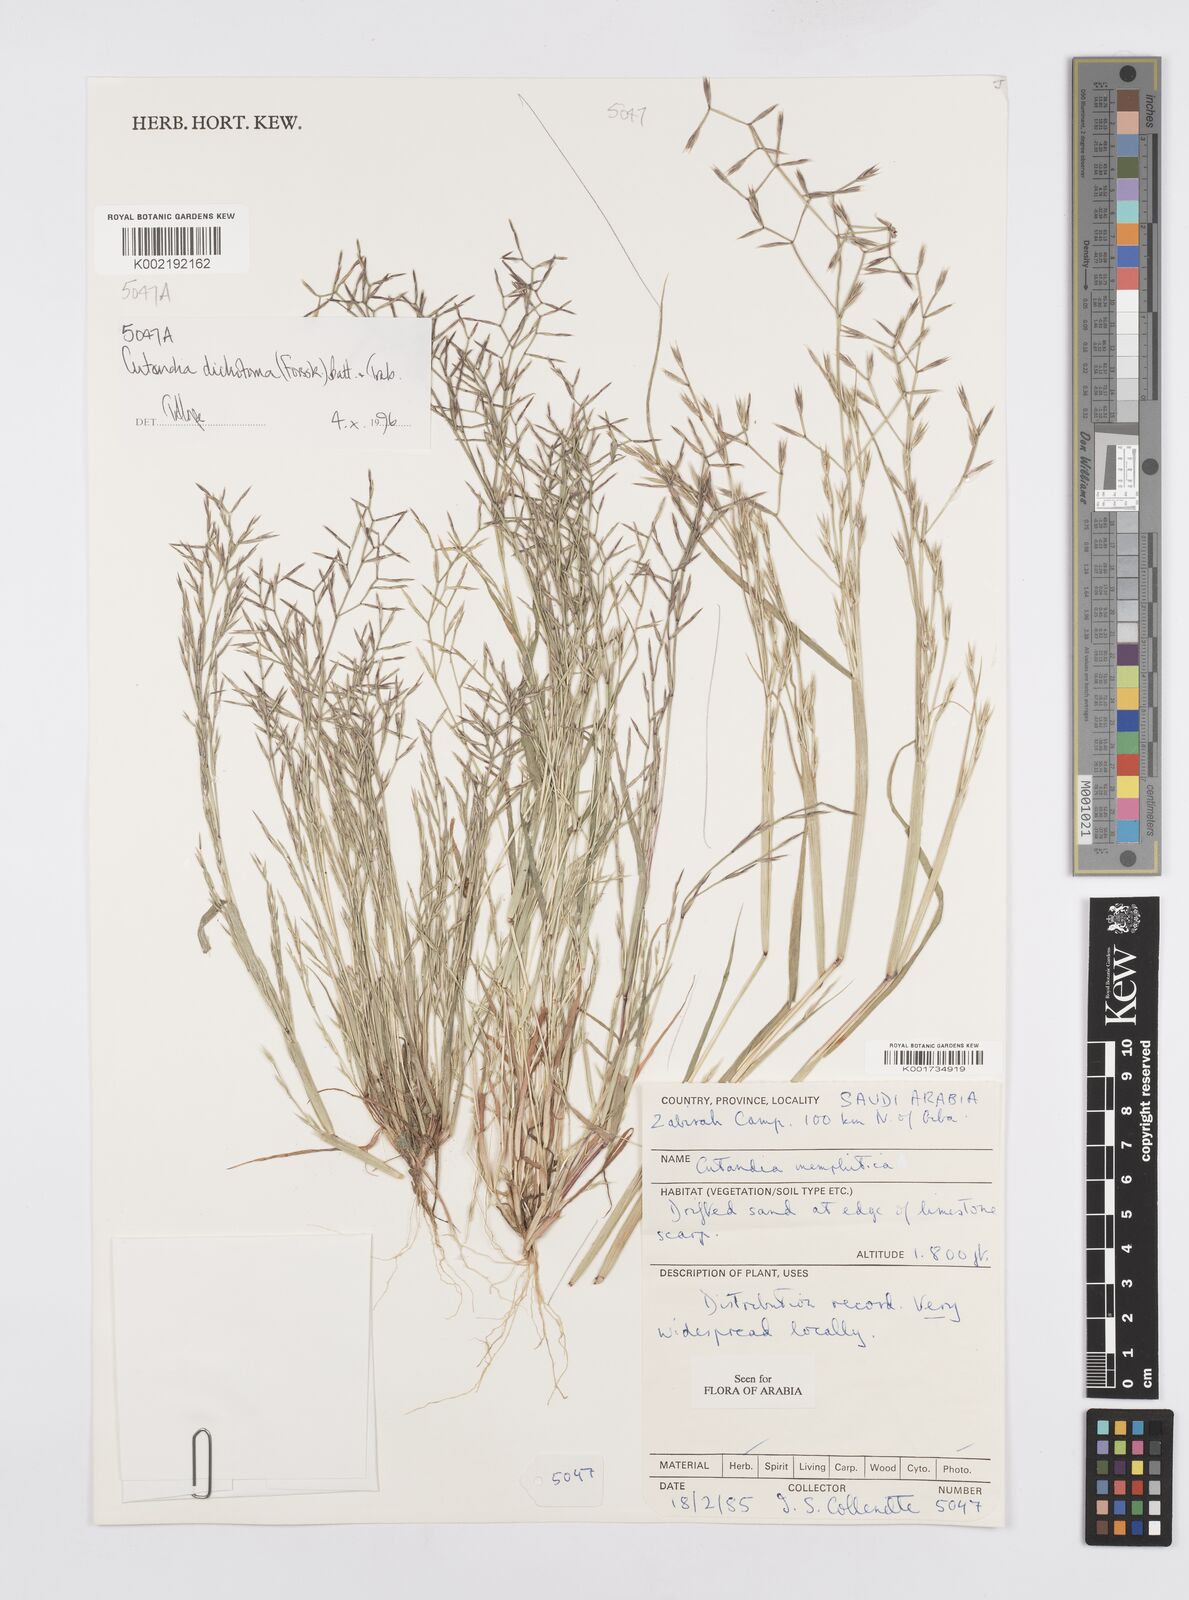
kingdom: Plantae
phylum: Tracheophyta
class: Liliopsida
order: Poales
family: Poaceae
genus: Cutandia
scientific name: Cutandia dichotoma
